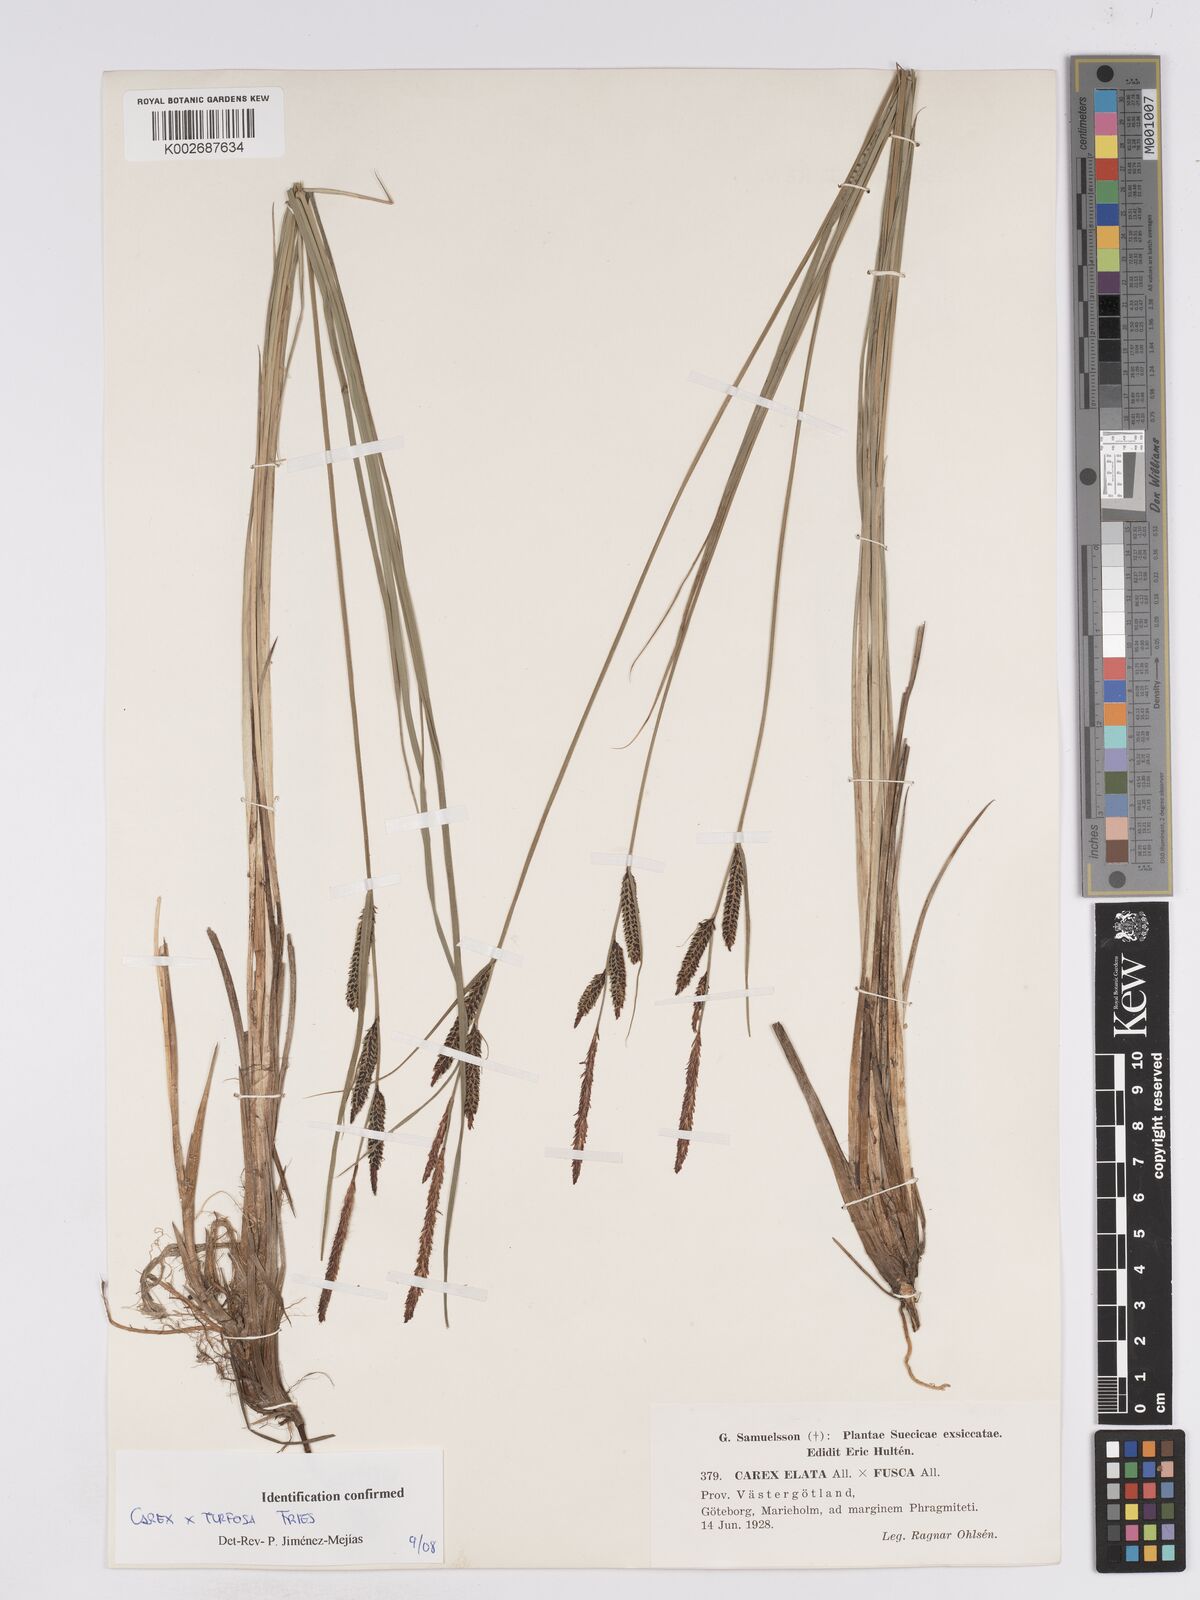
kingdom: Plantae
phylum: Tracheophyta
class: Liliopsida
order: Poales
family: Cyperaceae
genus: Carex
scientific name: Carex nigra
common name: Common sedge
